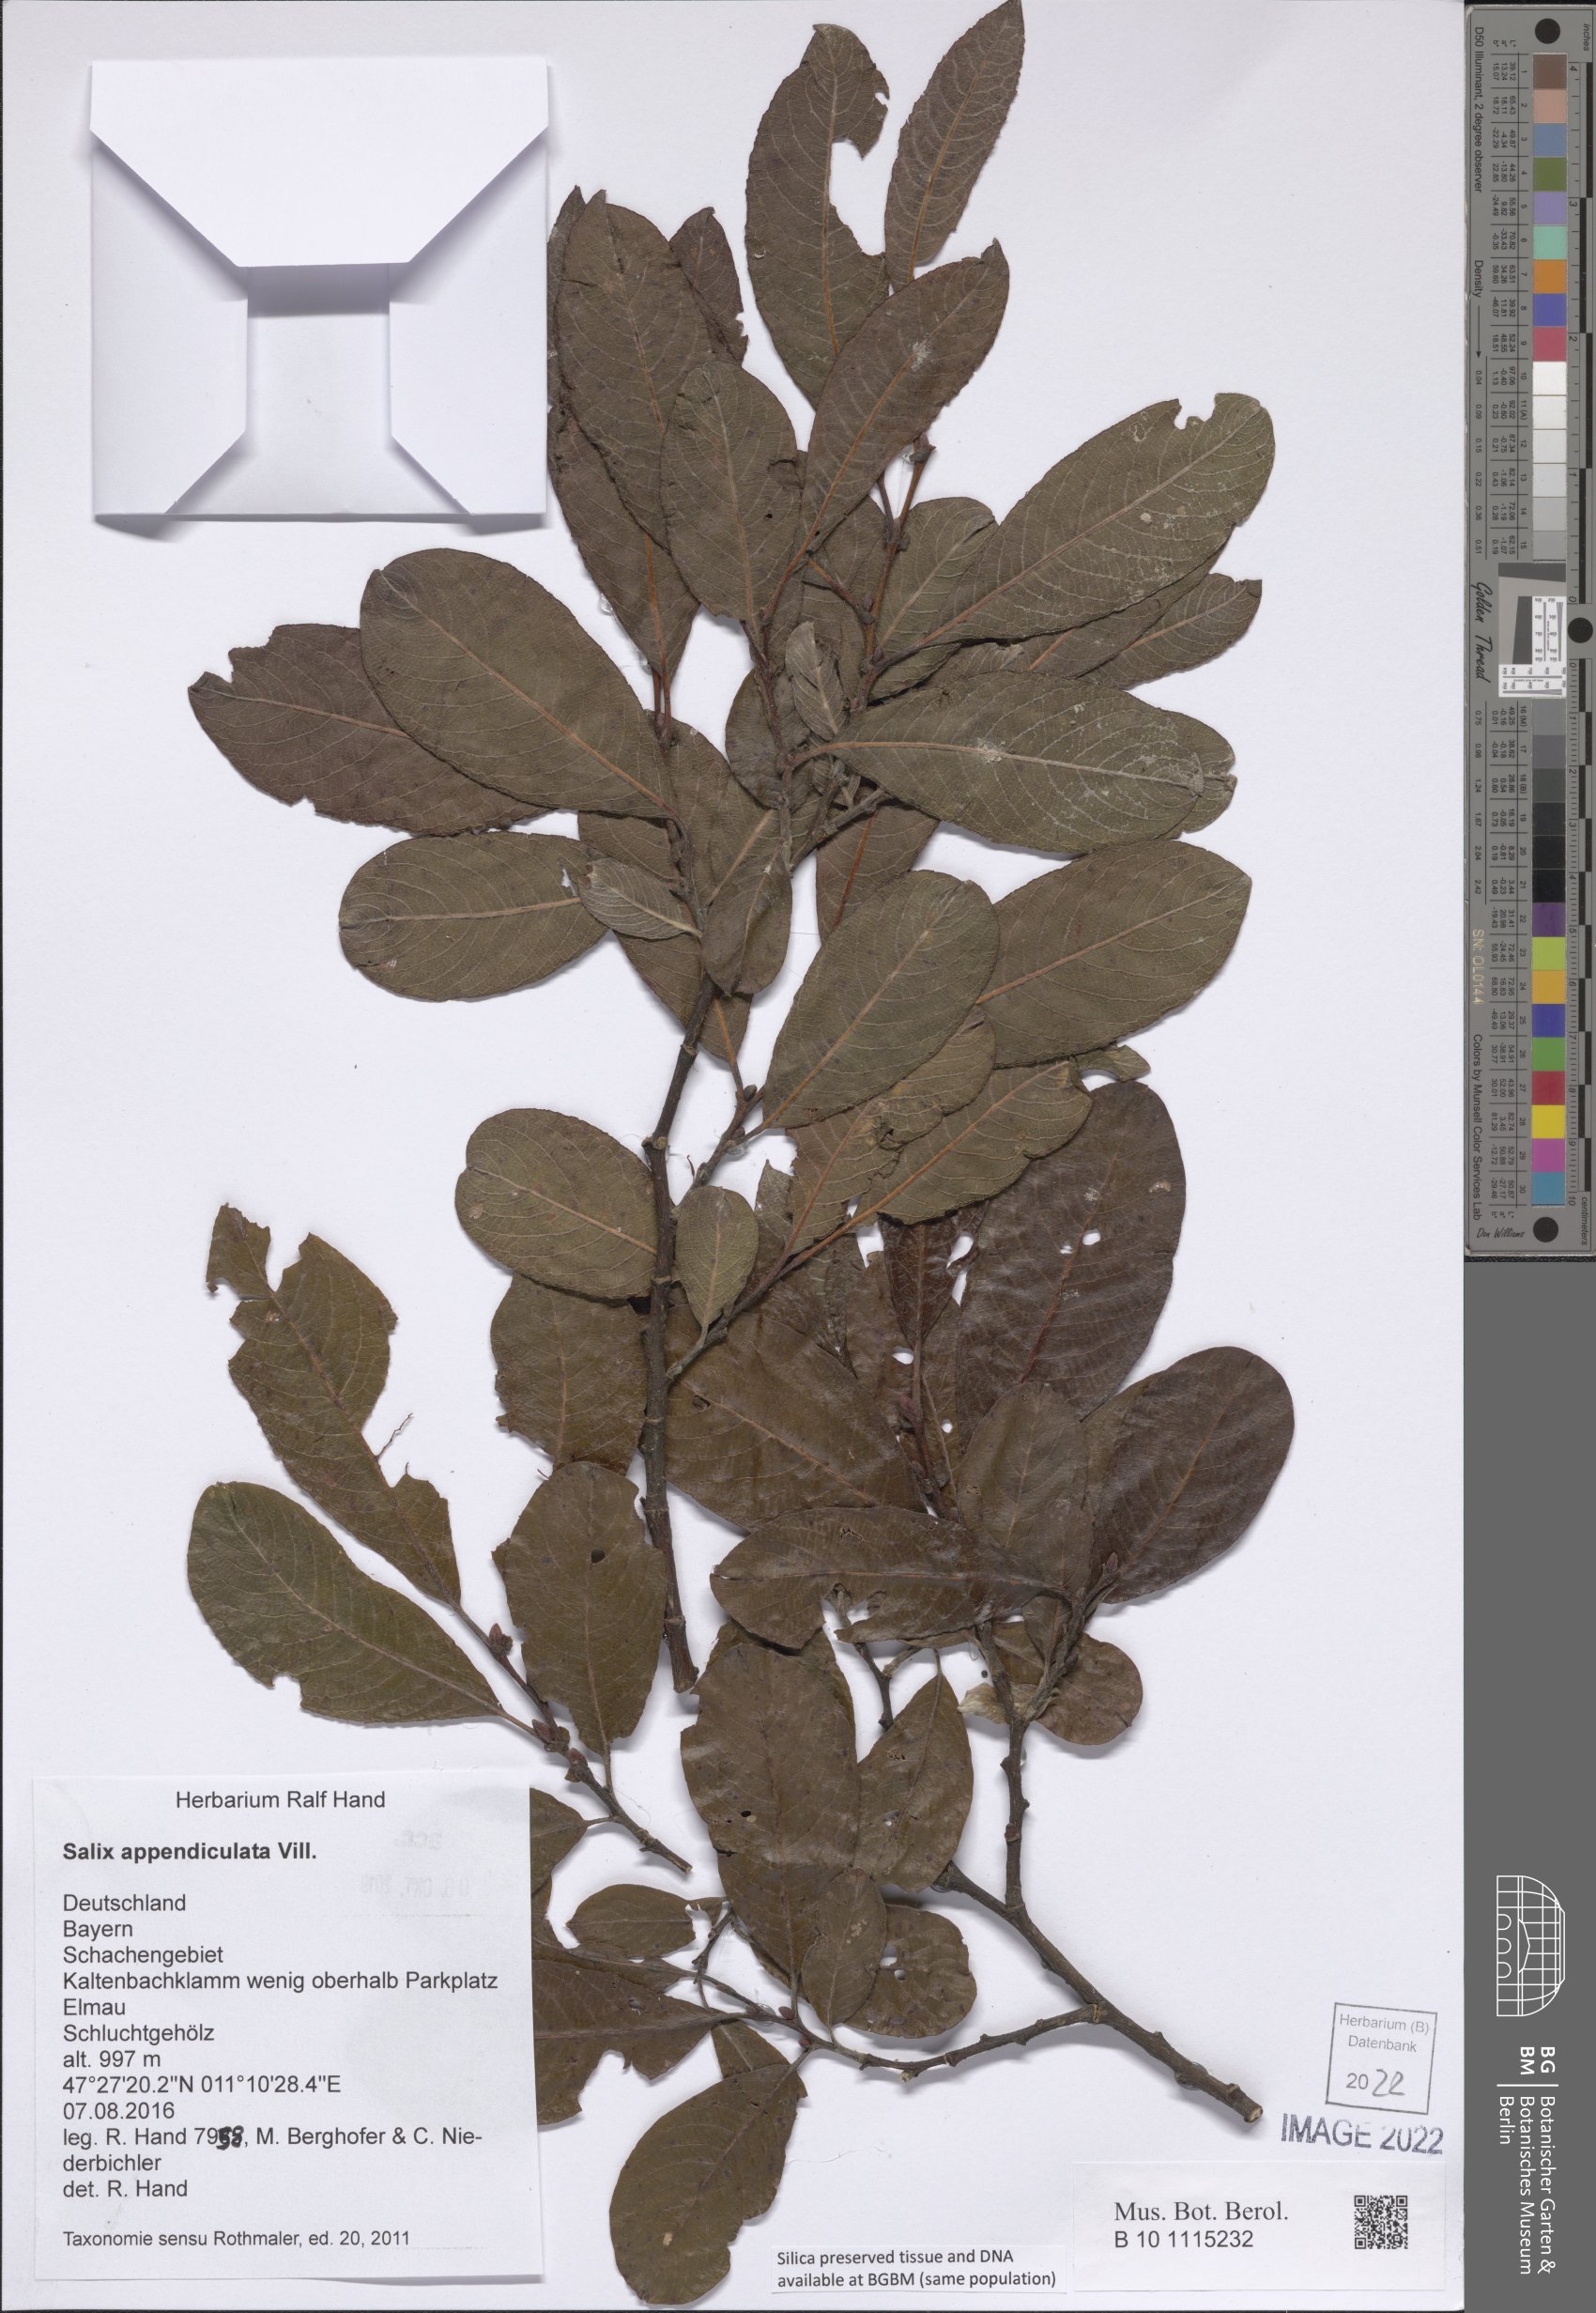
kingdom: Plantae
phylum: Tracheophyta
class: Magnoliopsida
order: Malpighiales
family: Salicaceae
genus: Salix
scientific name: Salix appendiculata
